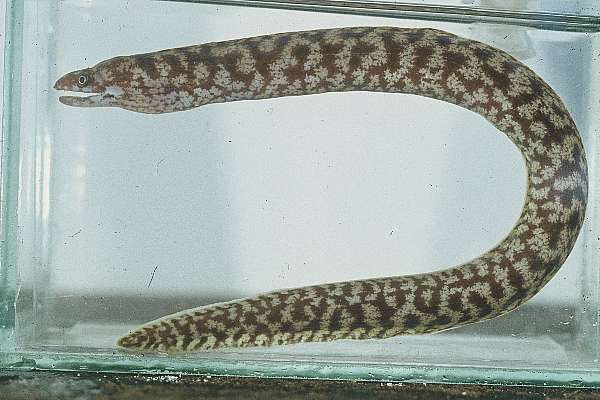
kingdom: Animalia
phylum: Chordata
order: Anguilliformes
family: Muraenidae
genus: Gymnothorax
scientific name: Gymnothorax margaritophorus
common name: Blotch-necked moray
